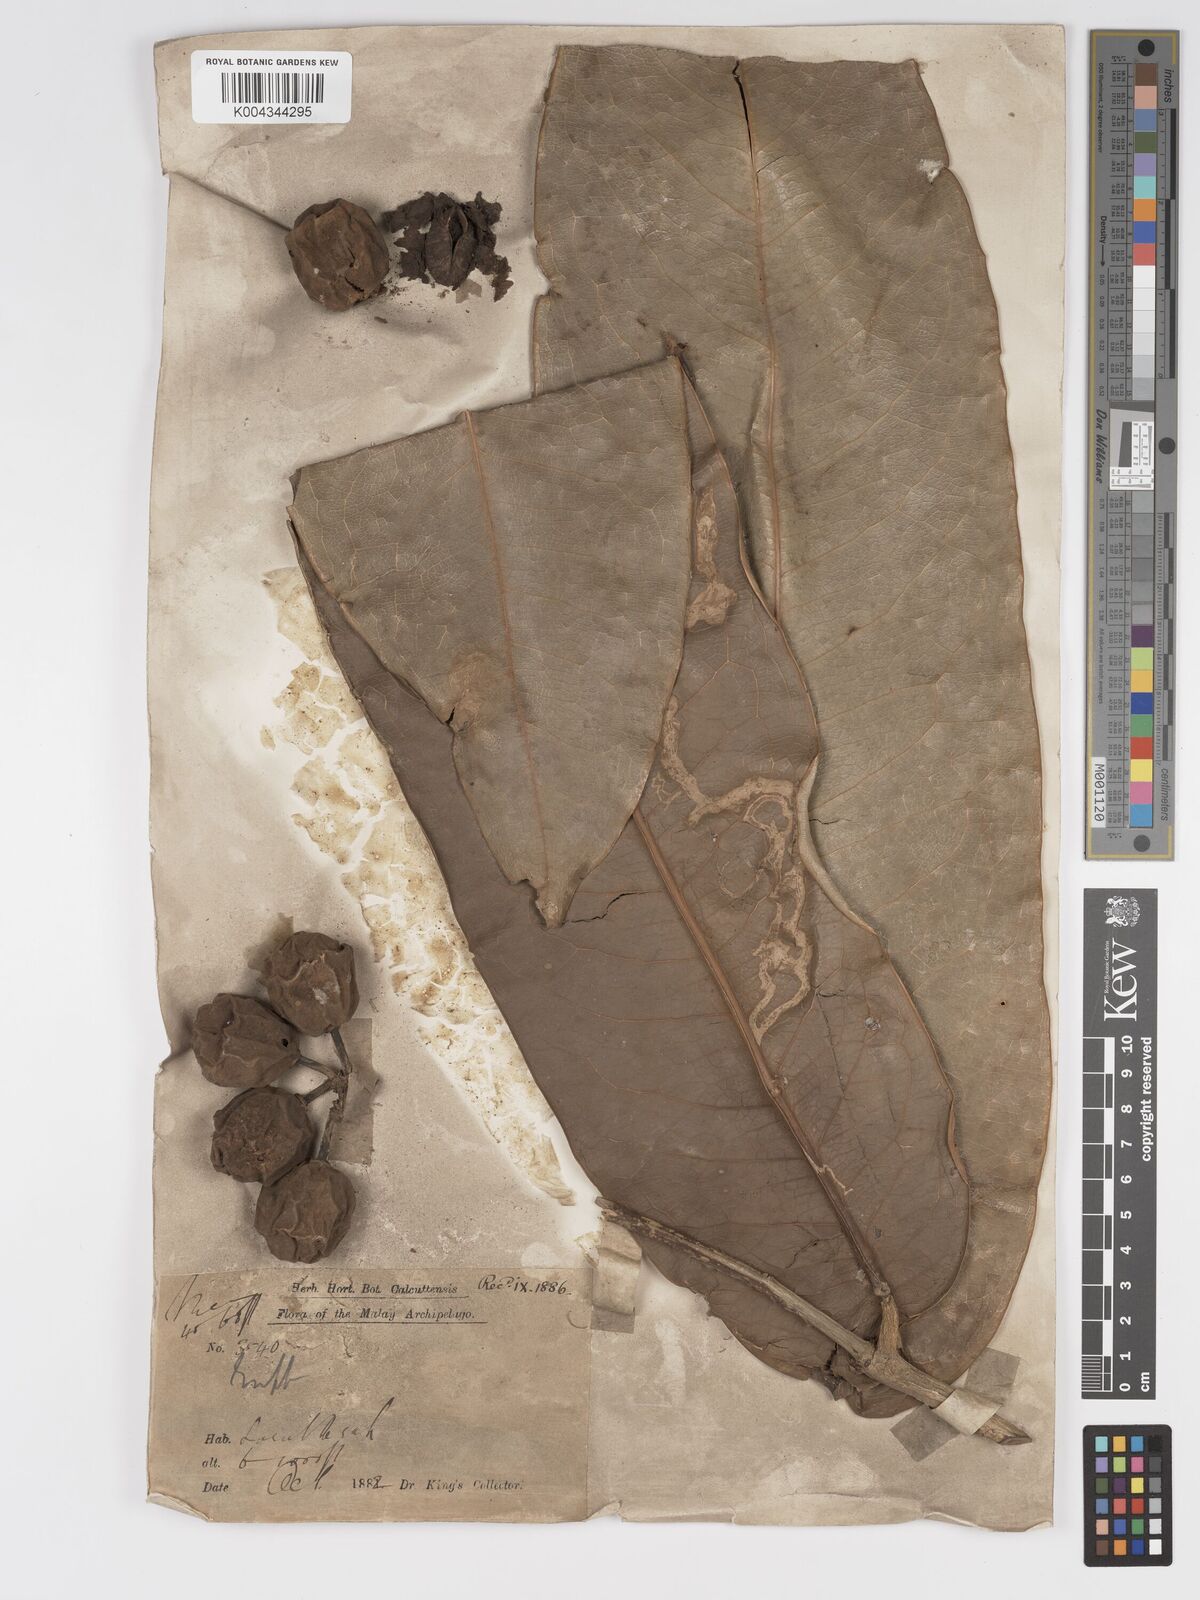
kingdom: Plantae
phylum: Tracheophyta
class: Magnoliopsida
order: Malpighiales
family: Putranjivaceae
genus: Drypetes
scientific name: Drypetes pendula
